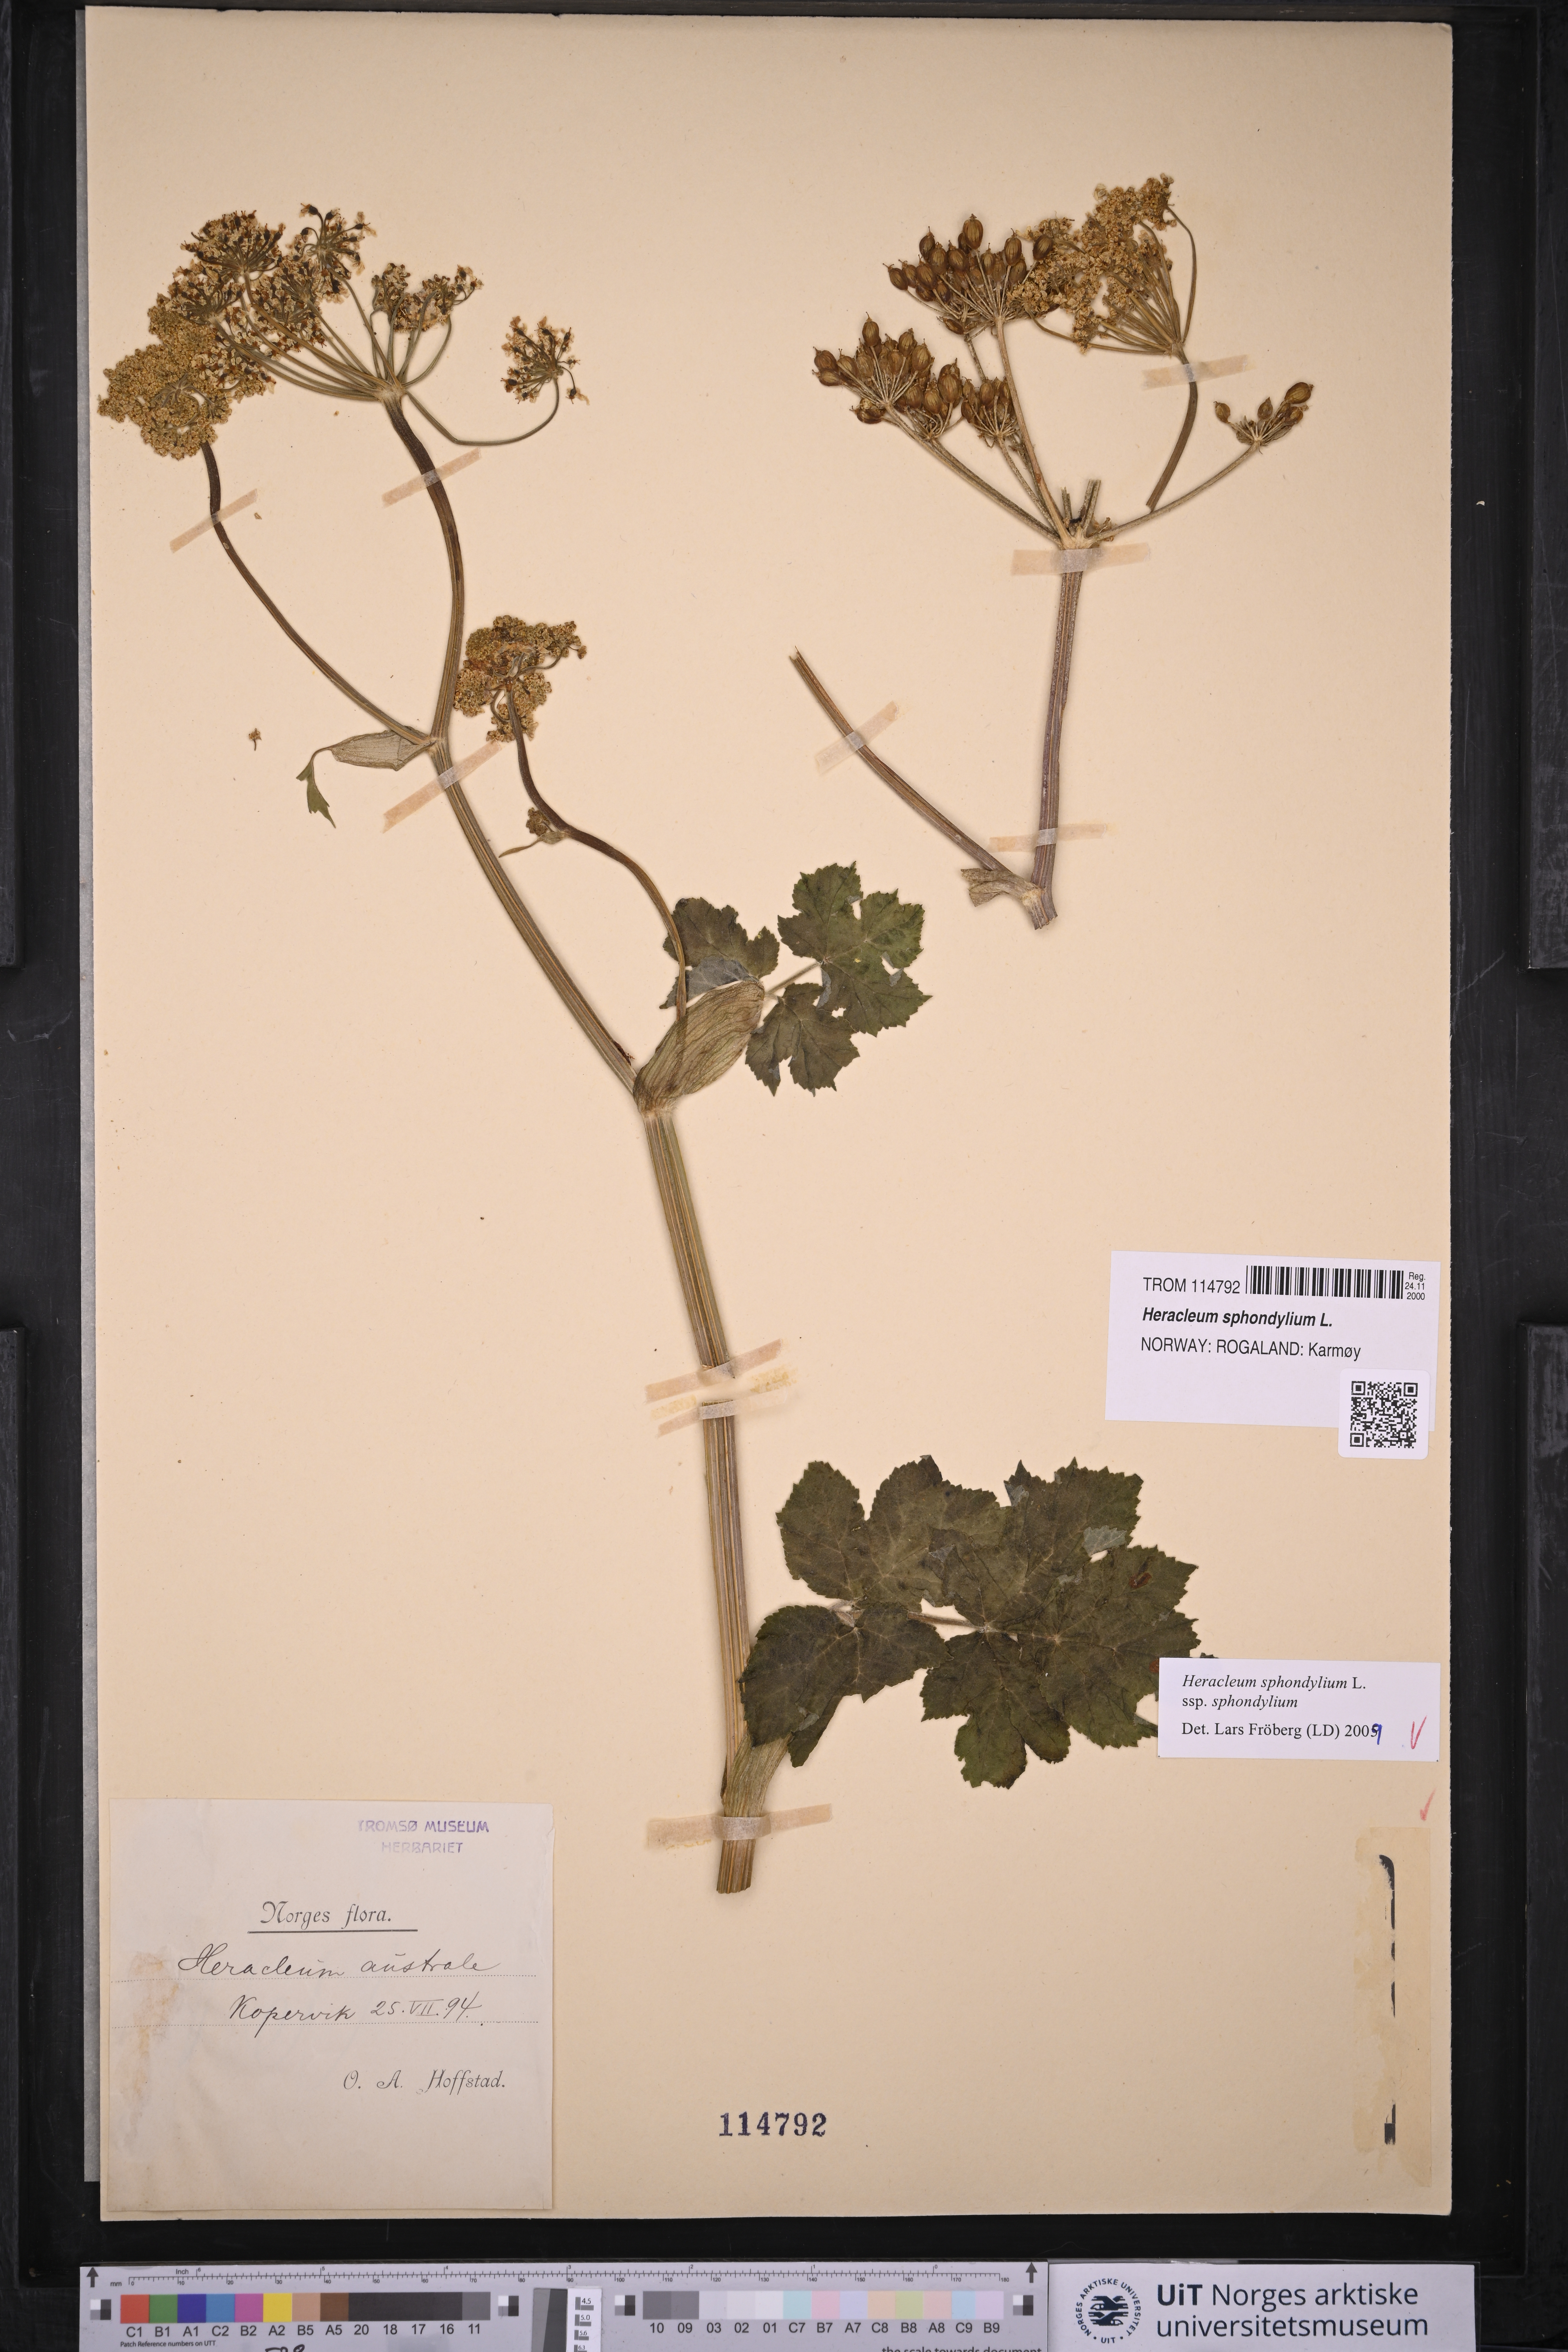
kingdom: Plantae
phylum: Tracheophyta
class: Magnoliopsida
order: Apiales
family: Apiaceae
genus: Heracleum
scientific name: Heracleum sphondylium
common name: Hogweed
